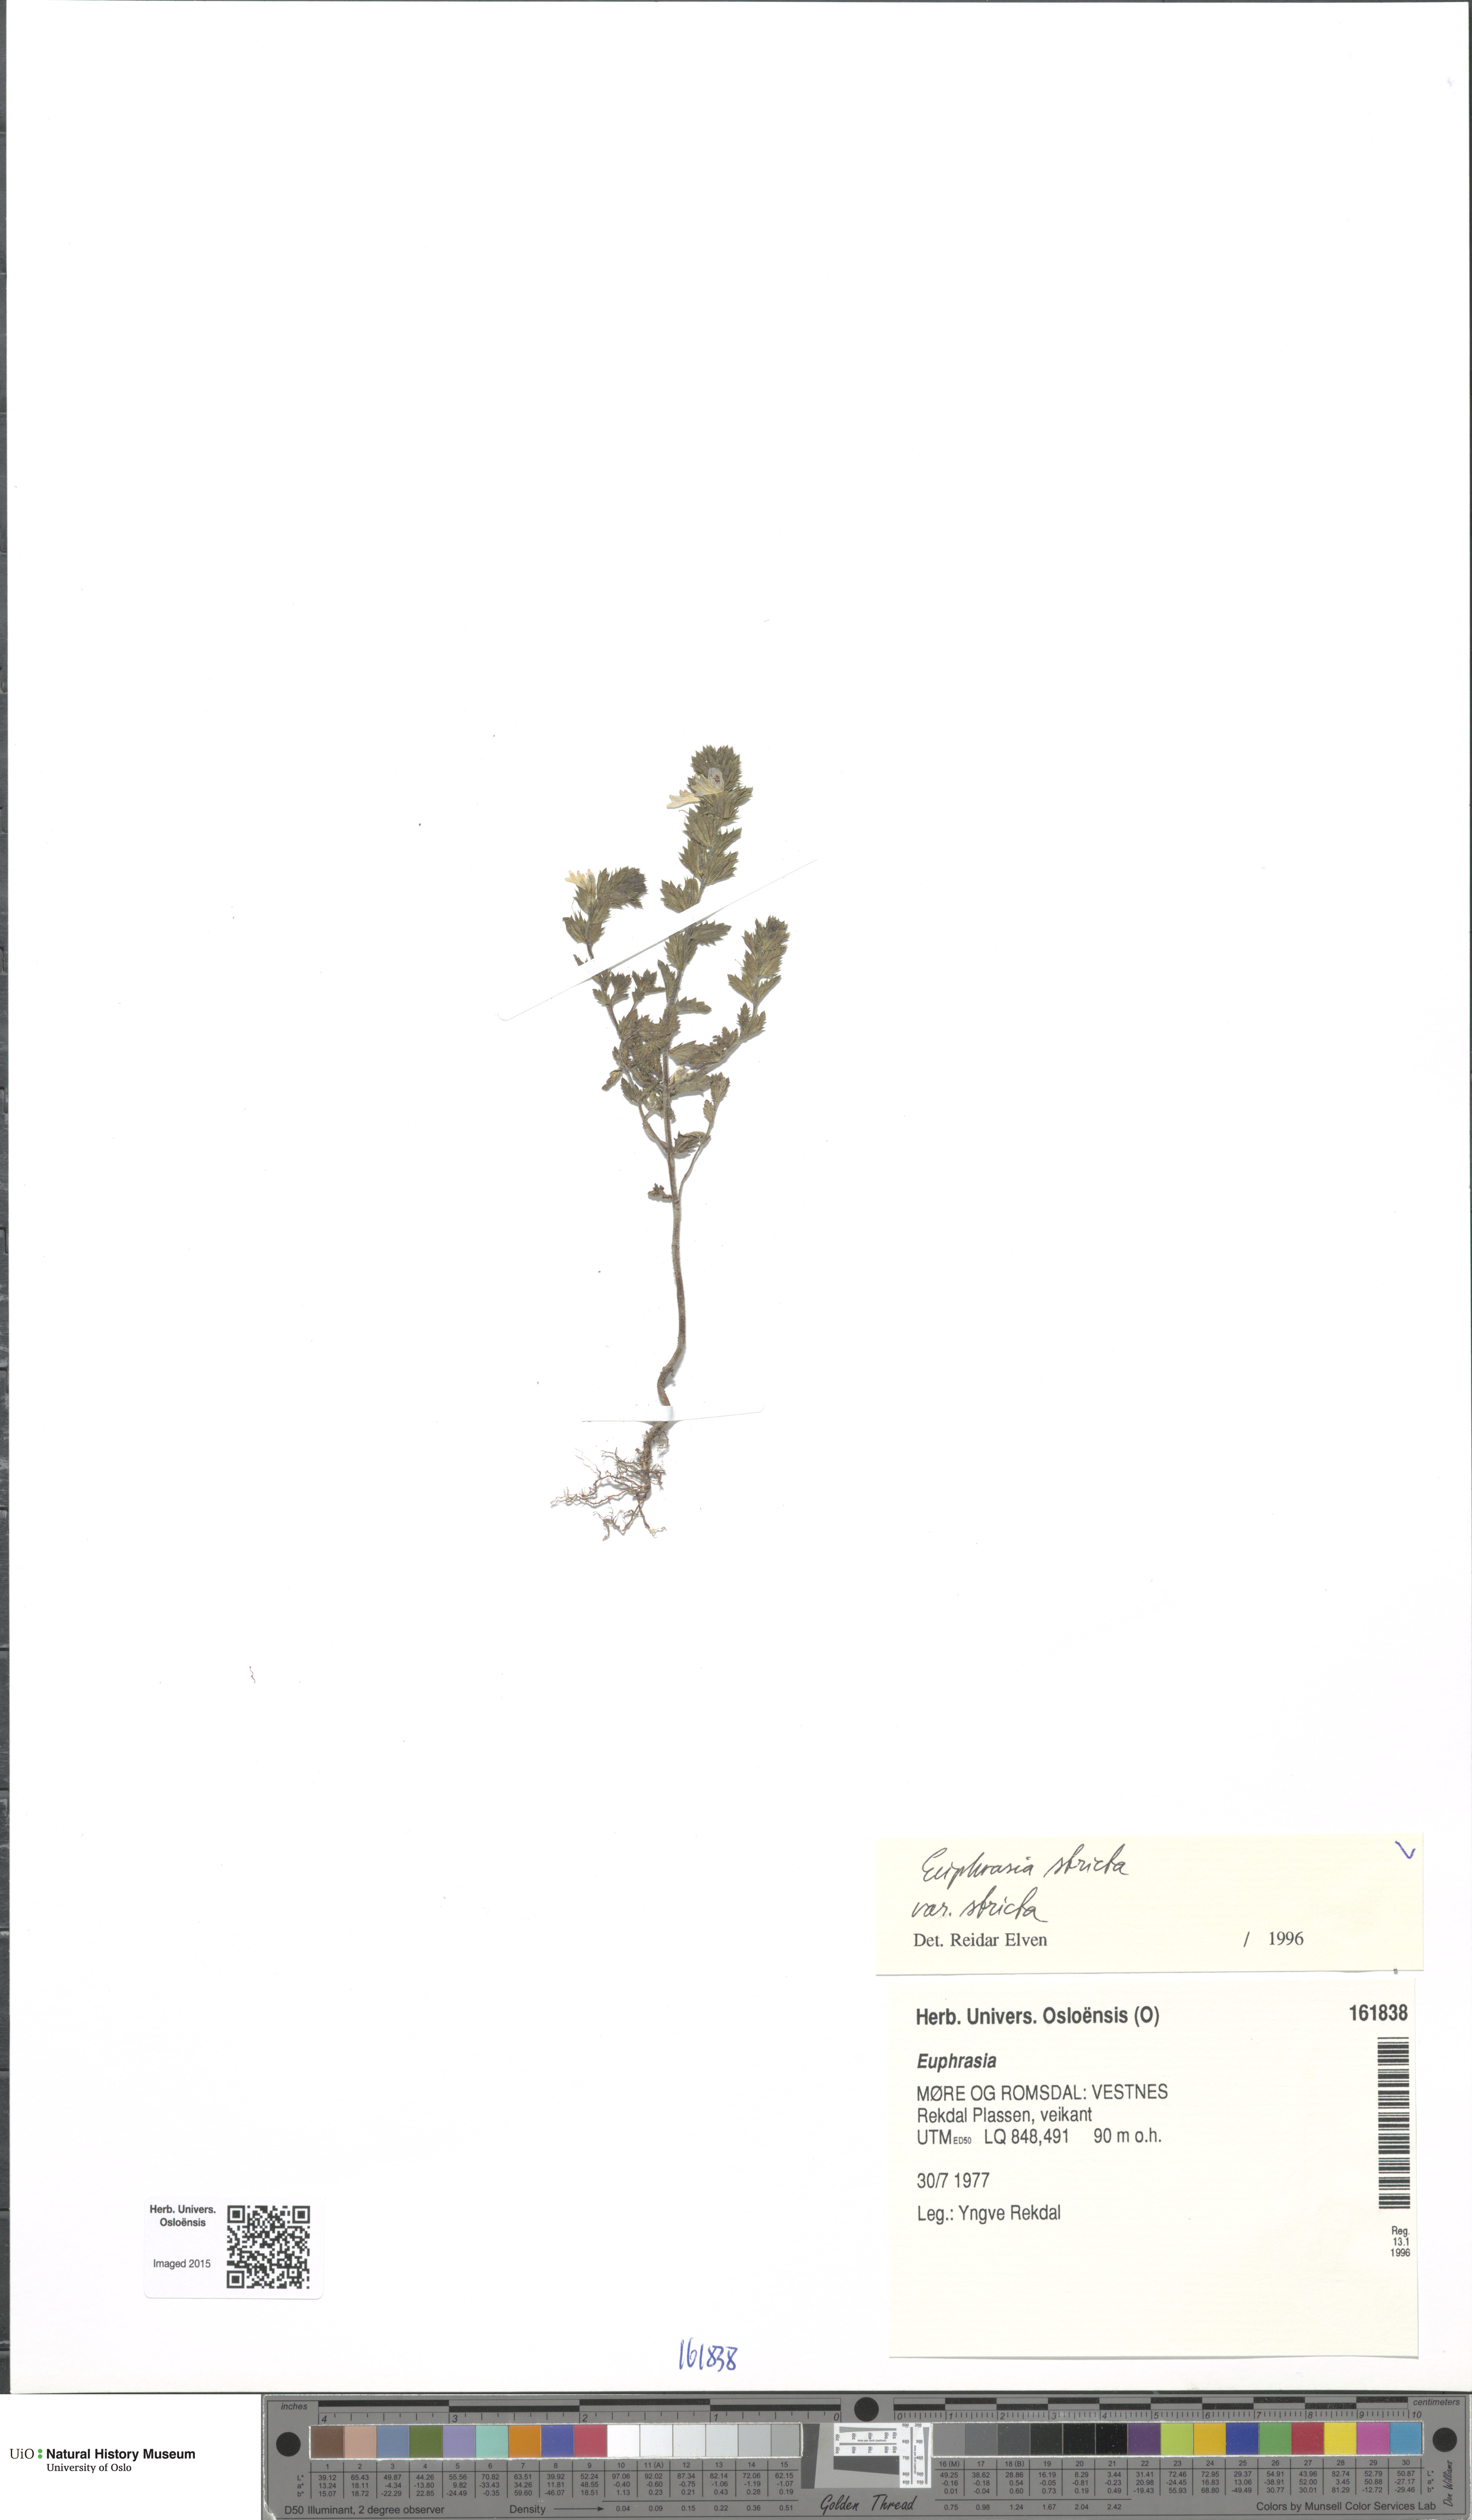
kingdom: Plantae
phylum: Tracheophyta
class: Magnoliopsida
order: Lamiales
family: Orobanchaceae
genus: Euphrasia
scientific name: Euphrasia stricta
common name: Drug eyebright
